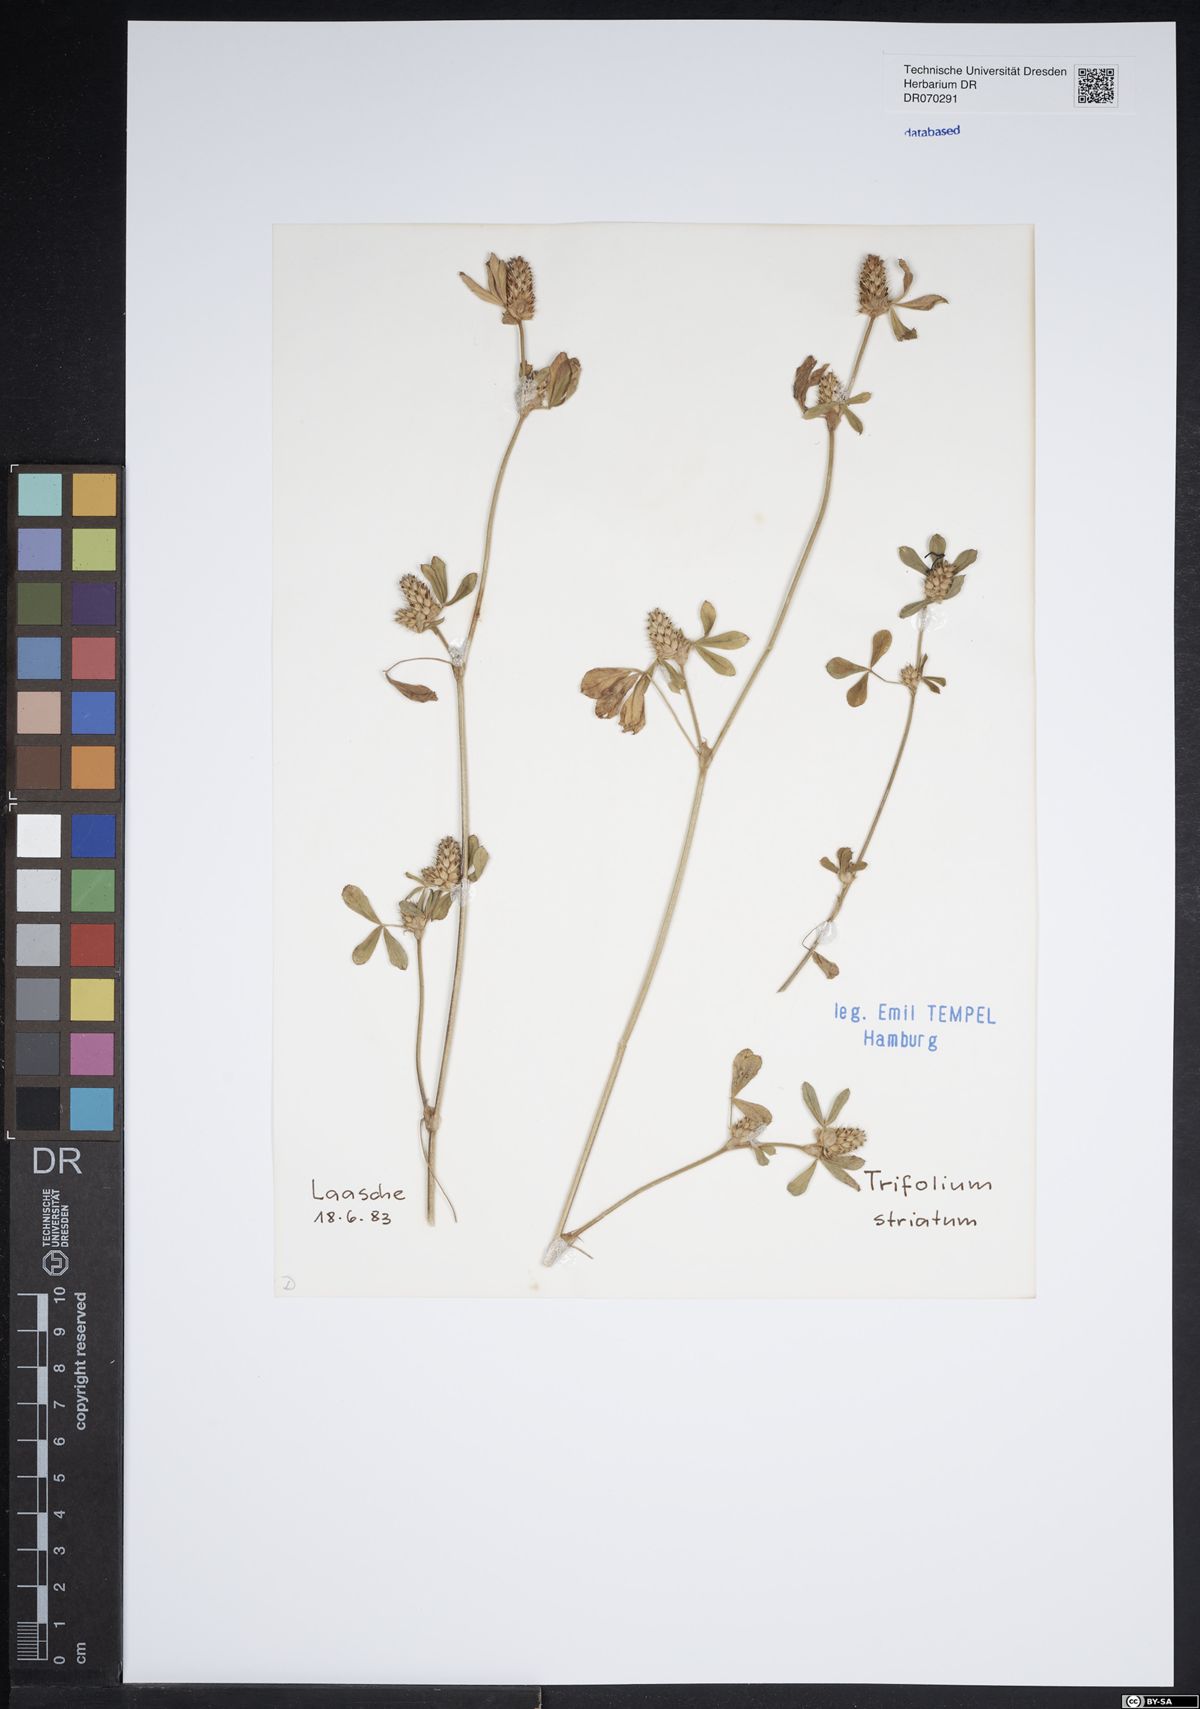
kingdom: Plantae
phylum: Tracheophyta
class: Magnoliopsida
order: Fabales
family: Fabaceae
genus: Trifolium
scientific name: Trifolium striatum
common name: Knotted clover
